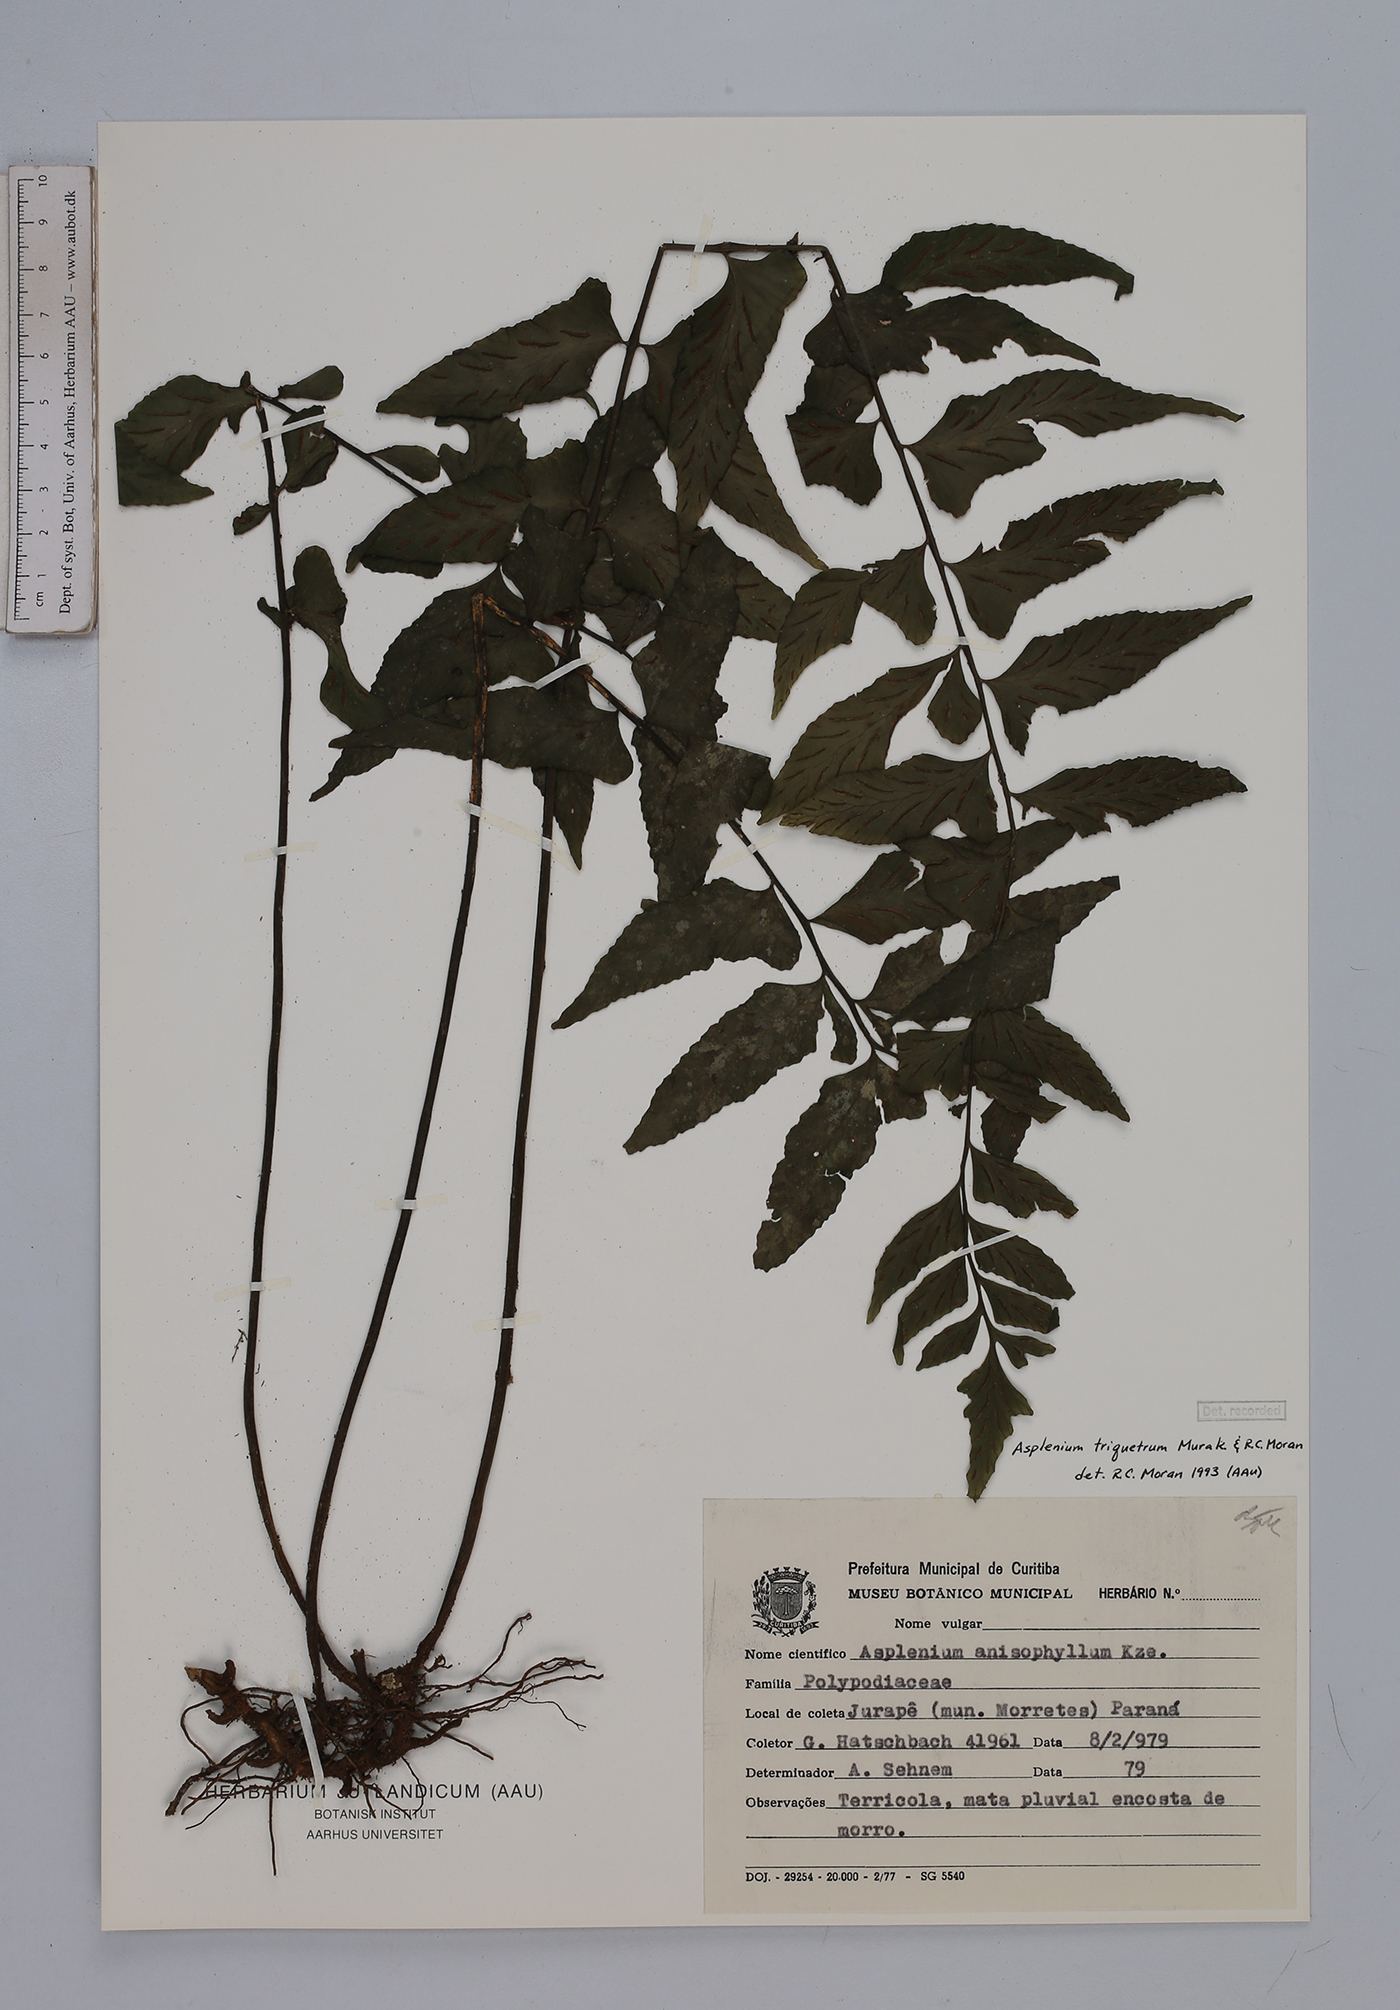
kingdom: Plantae
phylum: Tracheophyta
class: Polypodiopsida
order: Polypodiales
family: Aspleniaceae
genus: Hymenasplenium
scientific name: Hymenasplenium triquetrum
